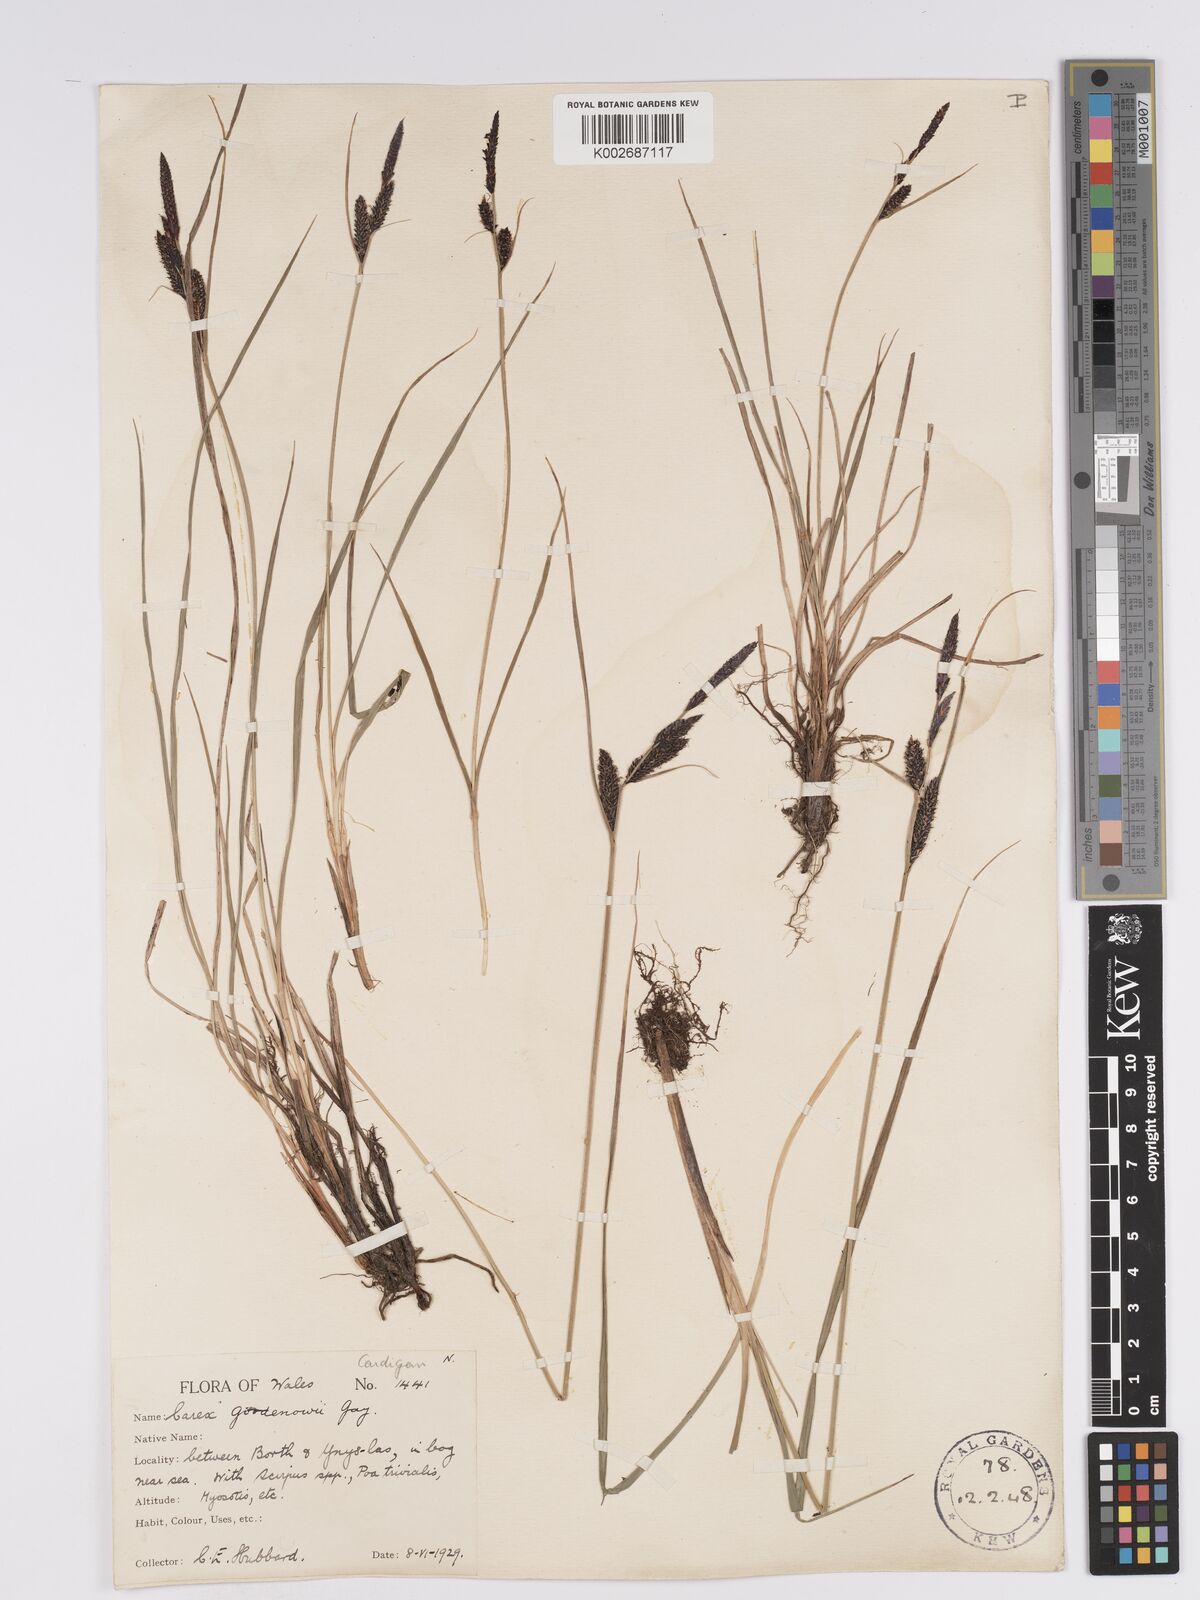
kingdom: Plantae
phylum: Tracheophyta
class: Liliopsida
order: Poales
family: Cyperaceae
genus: Carex
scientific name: Carex nigra
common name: Common sedge
